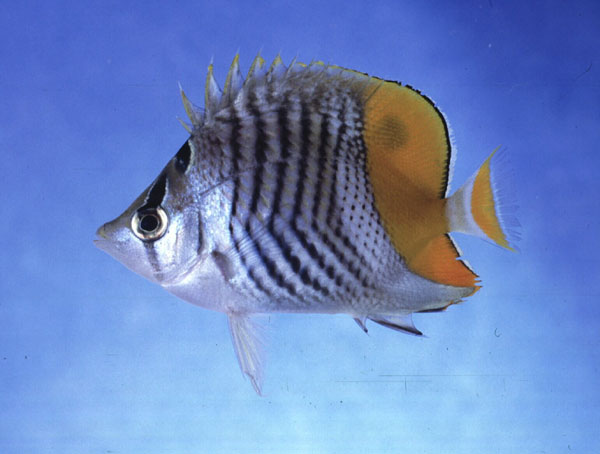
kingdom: Animalia
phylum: Chordata
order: Perciformes
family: Chaetodontidae
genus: Chaetodon
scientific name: Chaetodon madagaskariensis
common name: Madagascar butterflyfish
